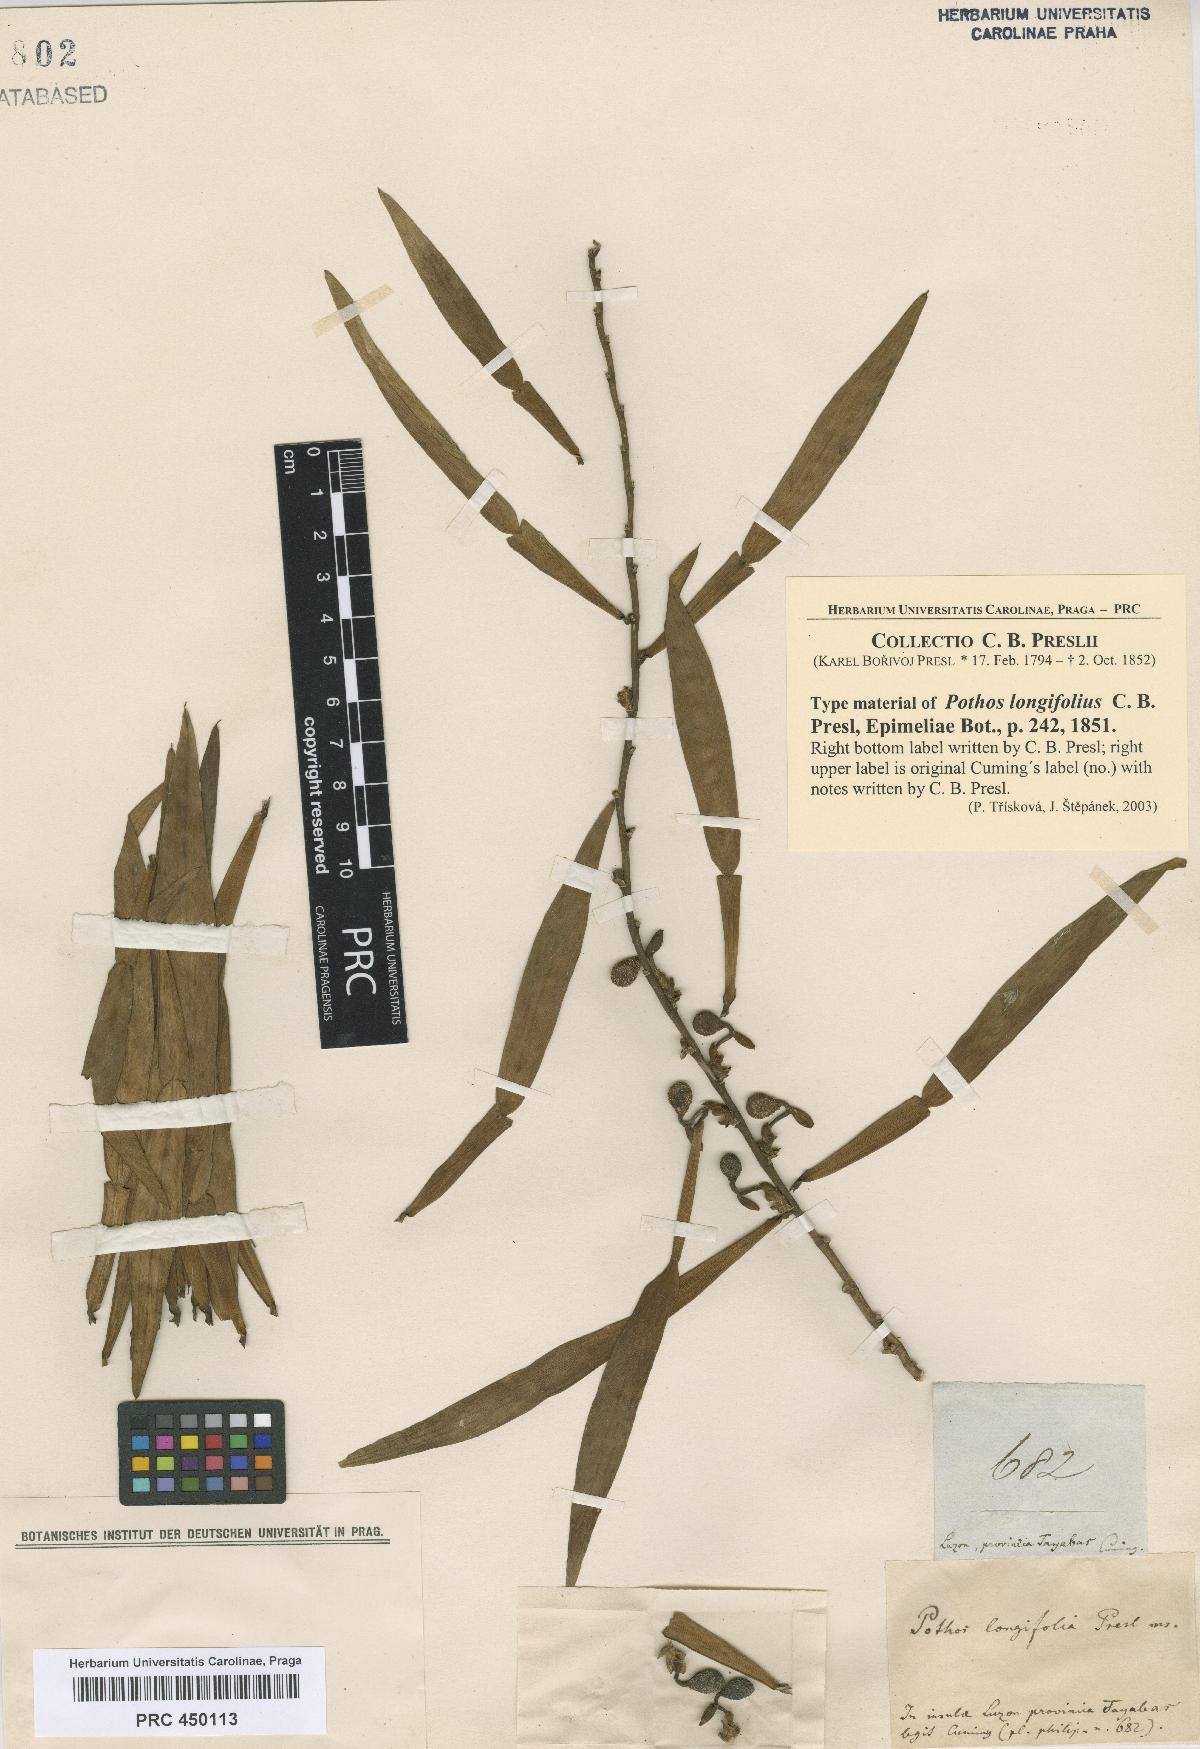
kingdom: Plantae
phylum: Tracheophyta
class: Liliopsida
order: Alismatales
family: Araceae
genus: Pothos
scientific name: Pothos scandens
